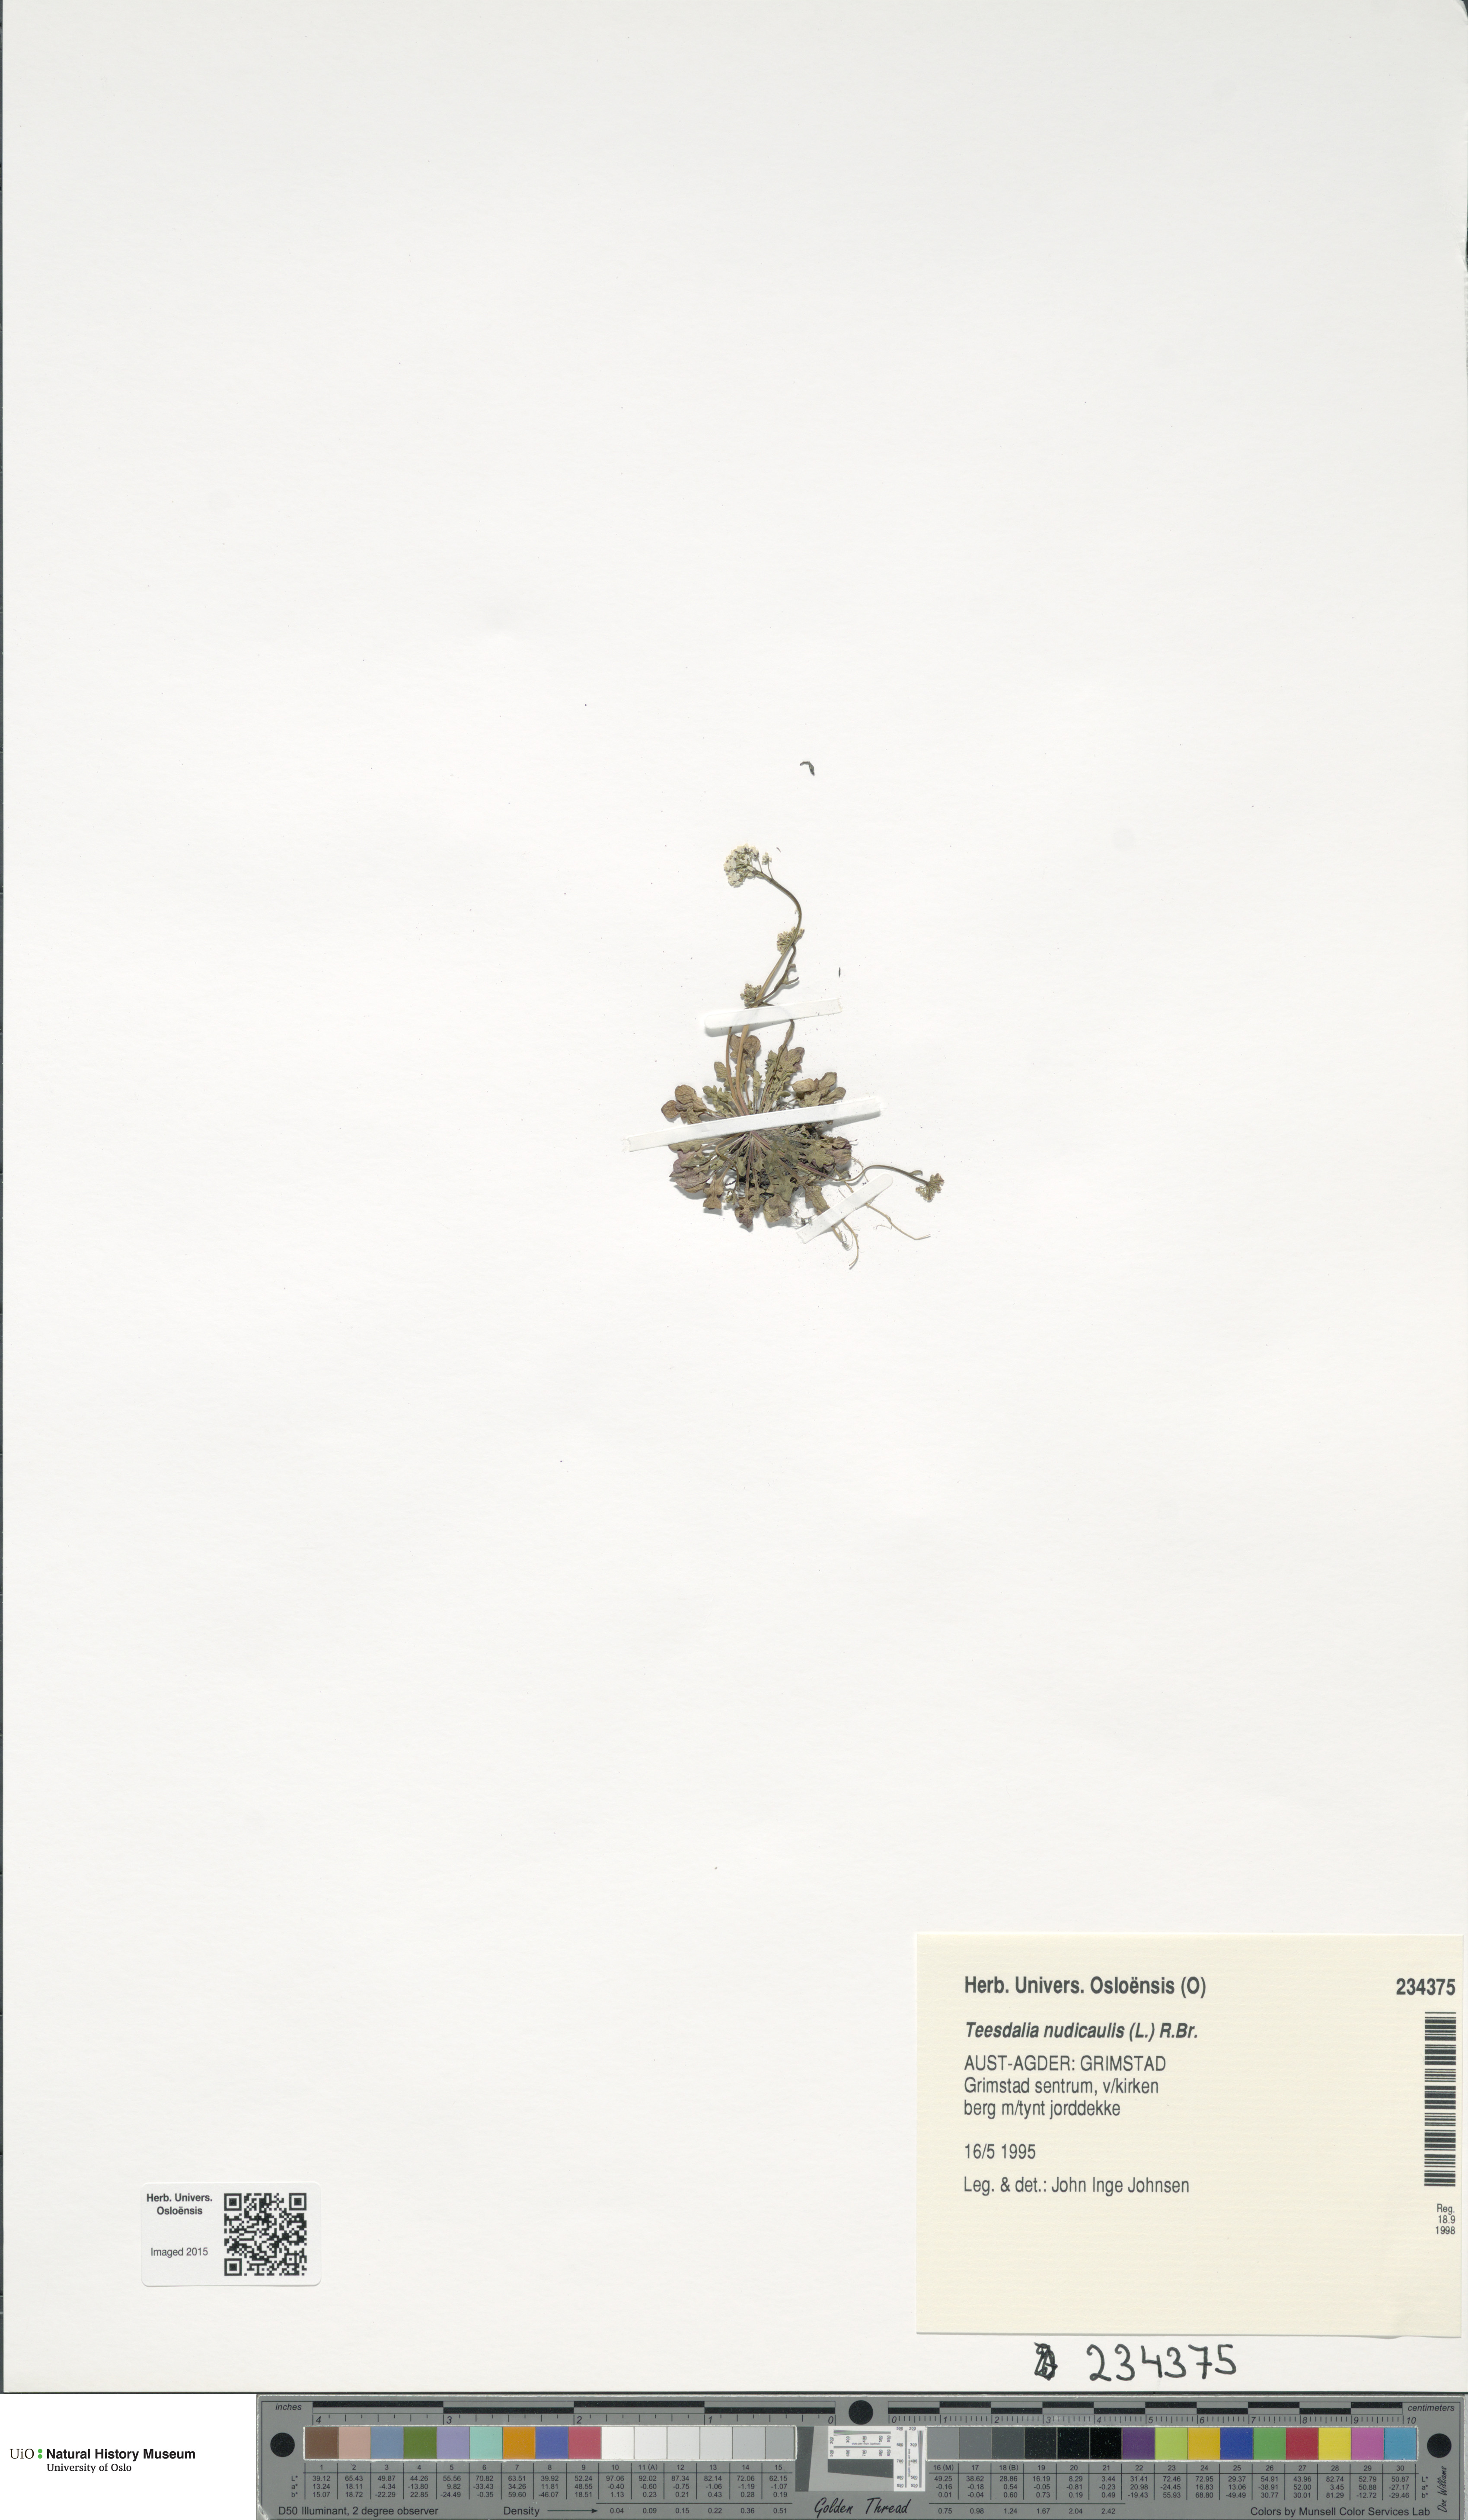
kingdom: Plantae
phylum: Tracheophyta
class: Magnoliopsida
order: Brassicales
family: Brassicaceae
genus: Teesdalia
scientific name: Teesdalia nudicaulis
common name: Shepherd's cress
